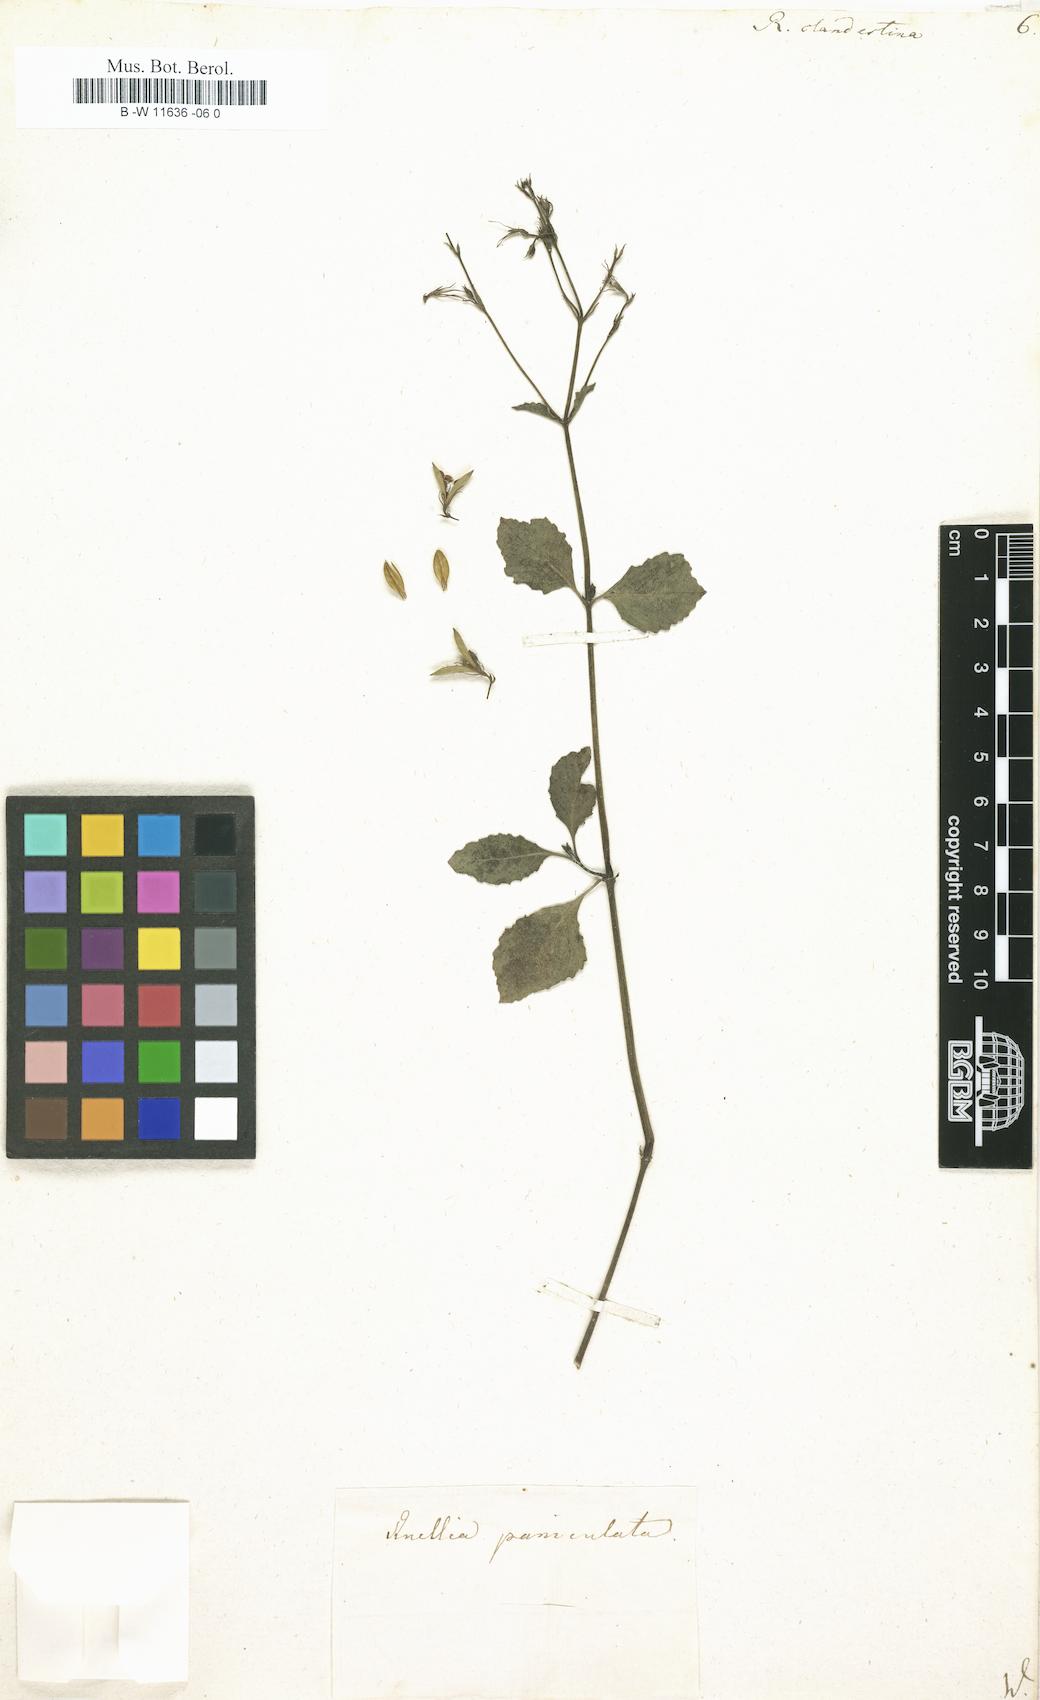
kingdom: Plantae
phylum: Tracheophyta
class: Magnoliopsida
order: Lamiales
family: Acanthaceae
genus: Ruellia
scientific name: Ruellia tuberosa
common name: Devil's bit
